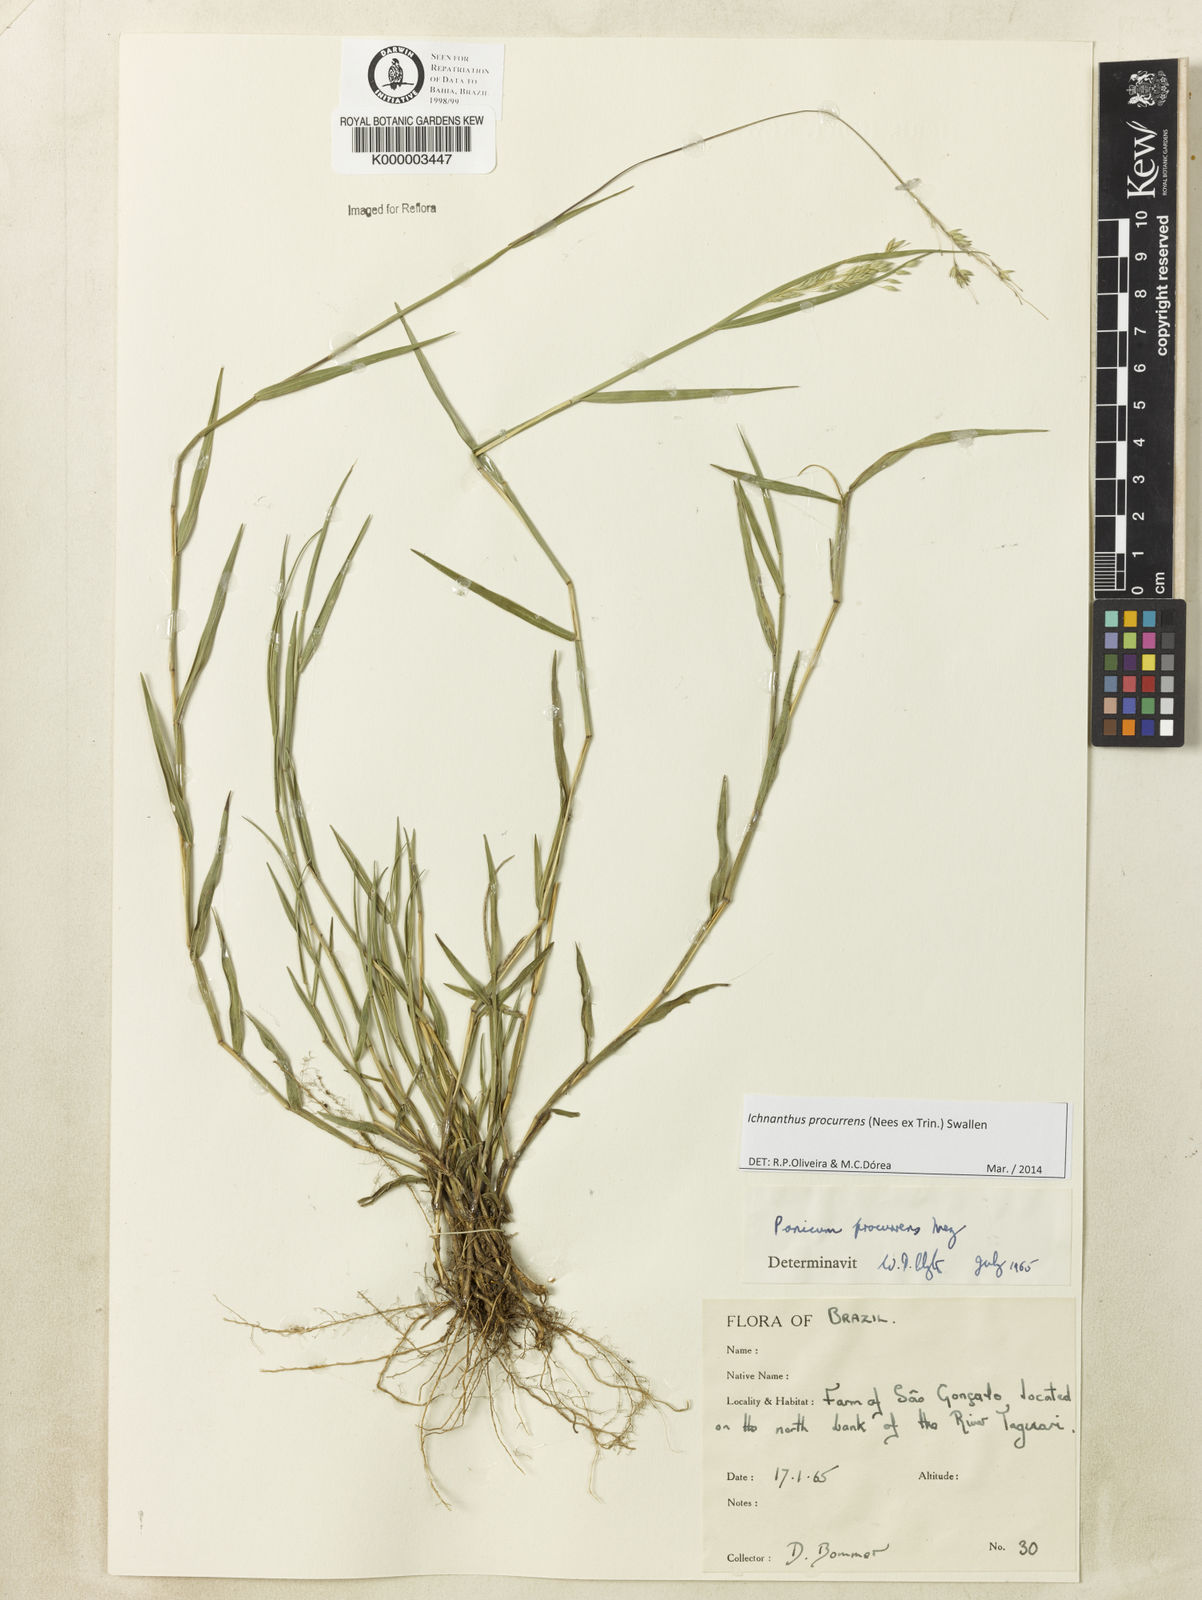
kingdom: Plantae
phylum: Tracheophyta
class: Liliopsida
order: Poales
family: Poaceae
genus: Oedochloa
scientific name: Oedochloa procurrens
